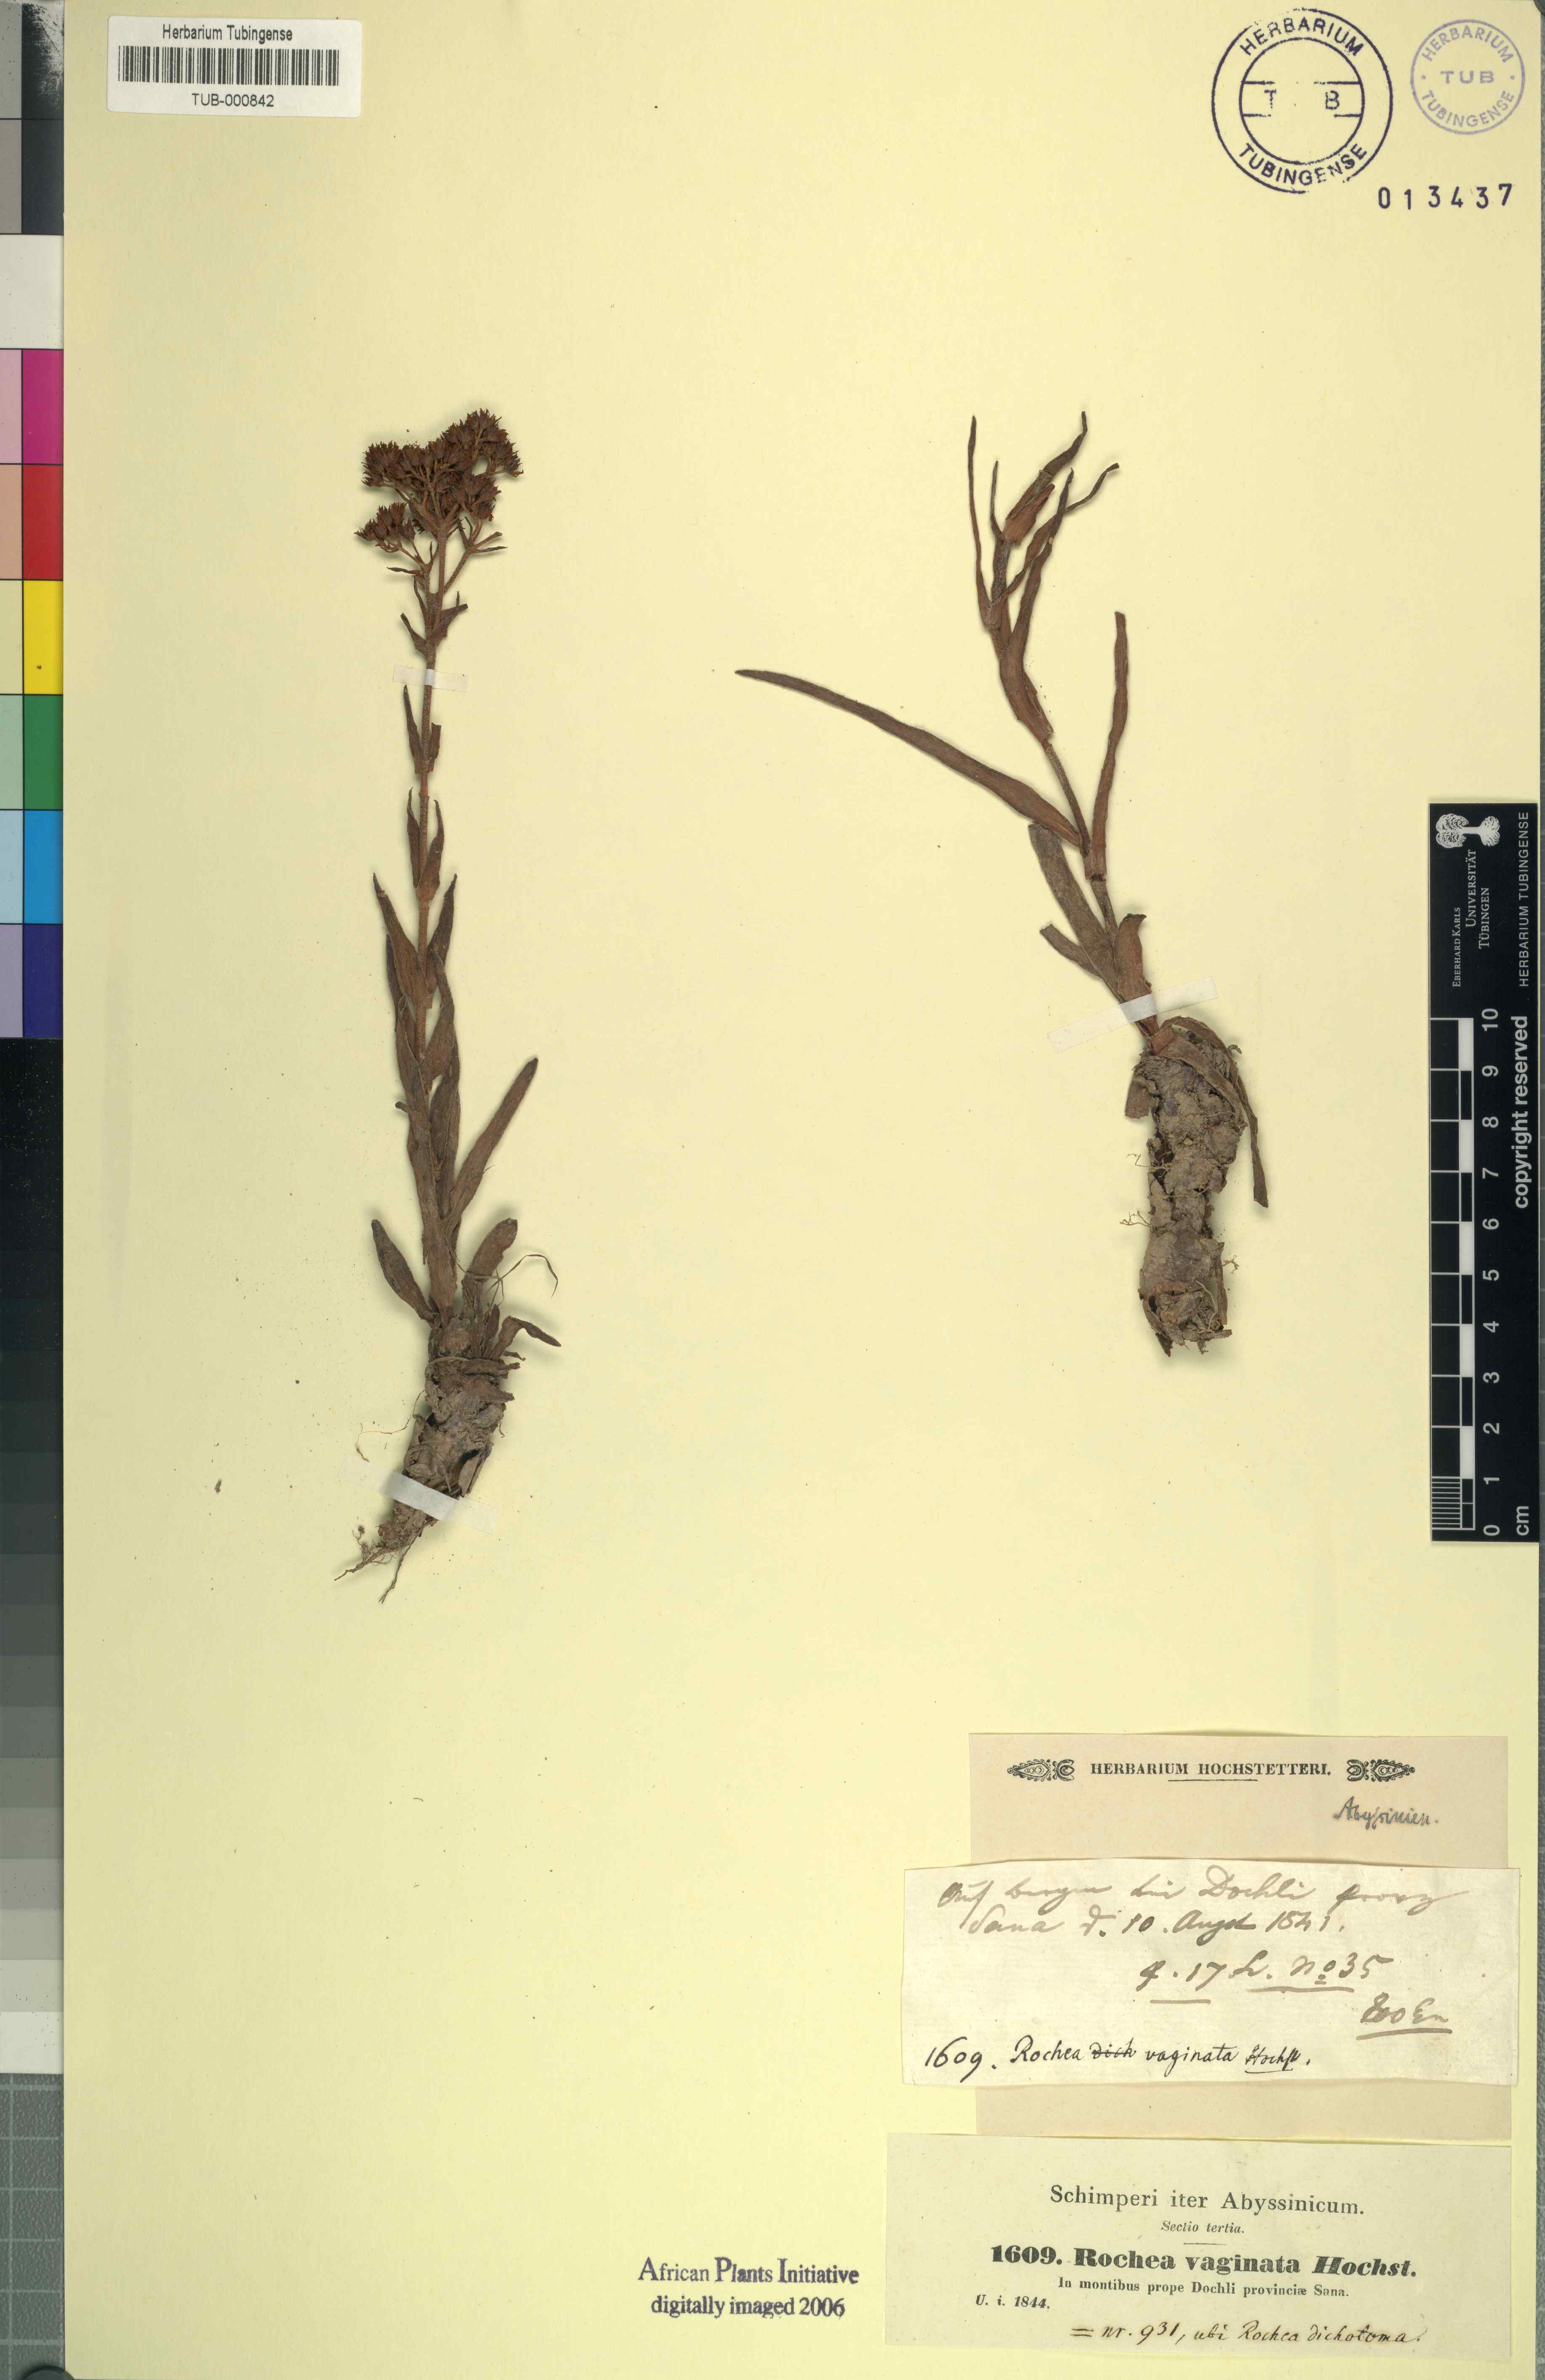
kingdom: Plantae
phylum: Tracheophyta
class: Magnoliopsida
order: Saxifragales
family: Crassulaceae
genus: Crassula
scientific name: Crassula alba
